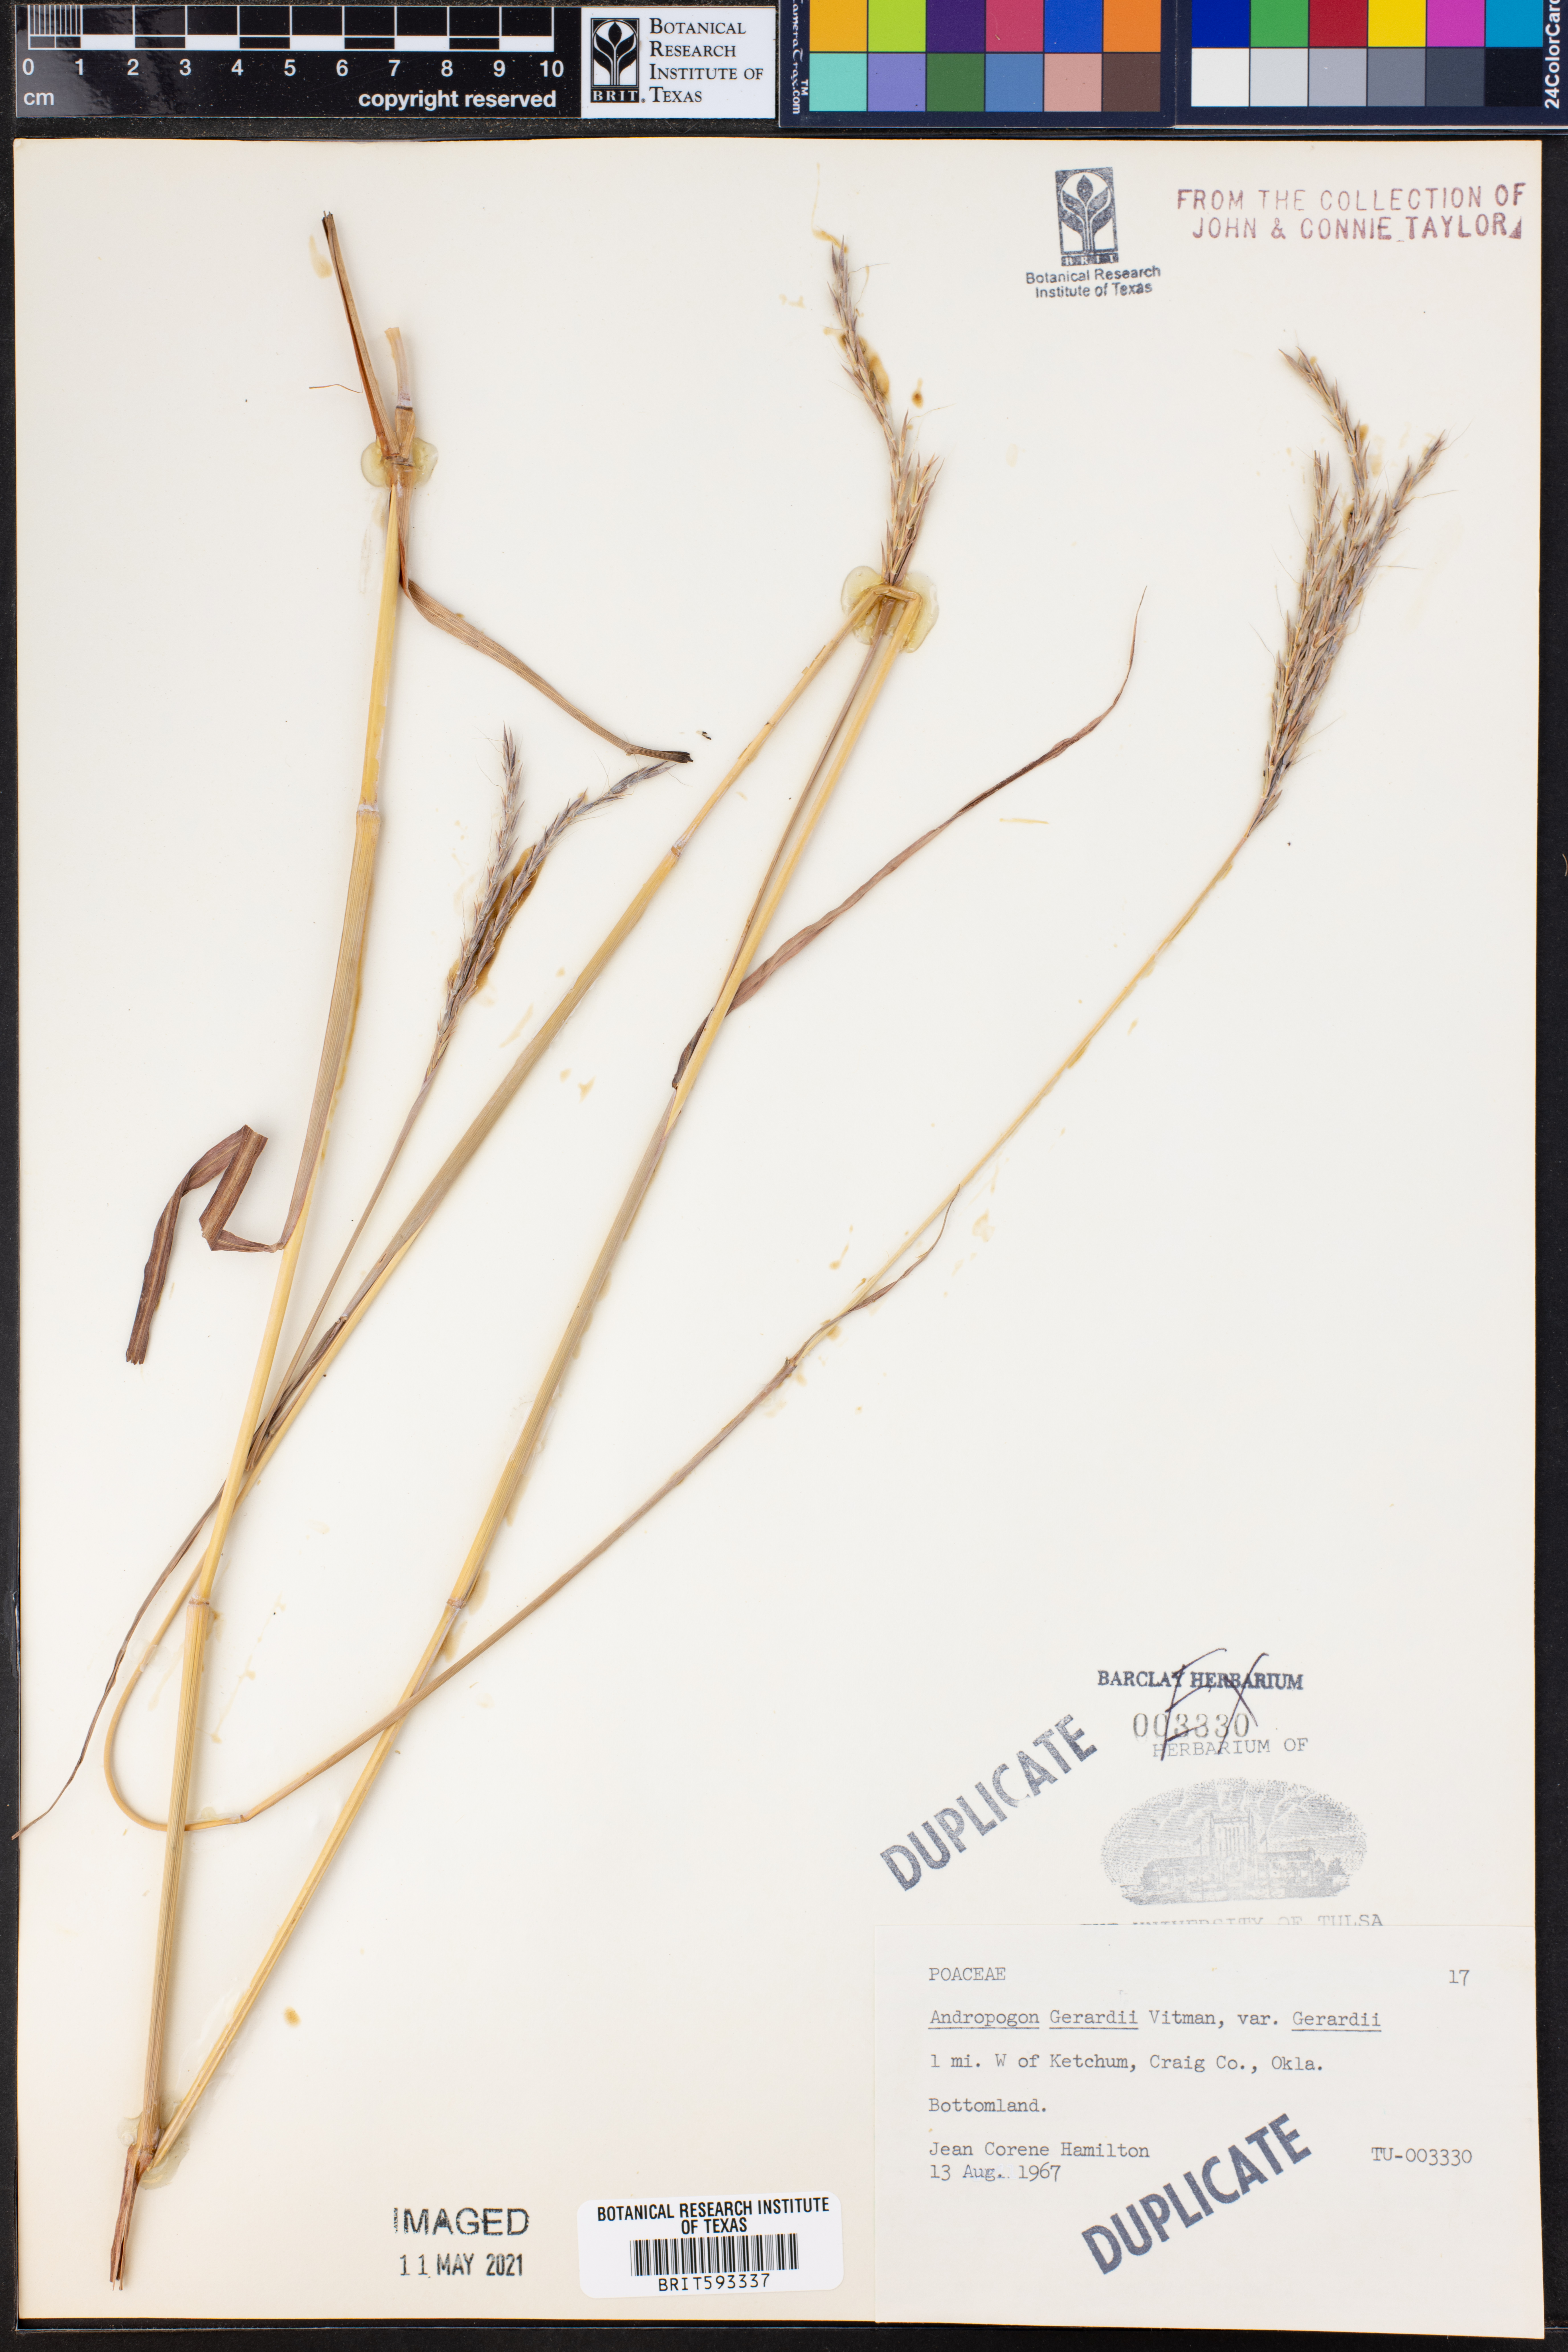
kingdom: Plantae
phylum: Tracheophyta
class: Liliopsida
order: Poales
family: Poaceae
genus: Andropogon
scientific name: Andropogon gerardi
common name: Big bluestem
